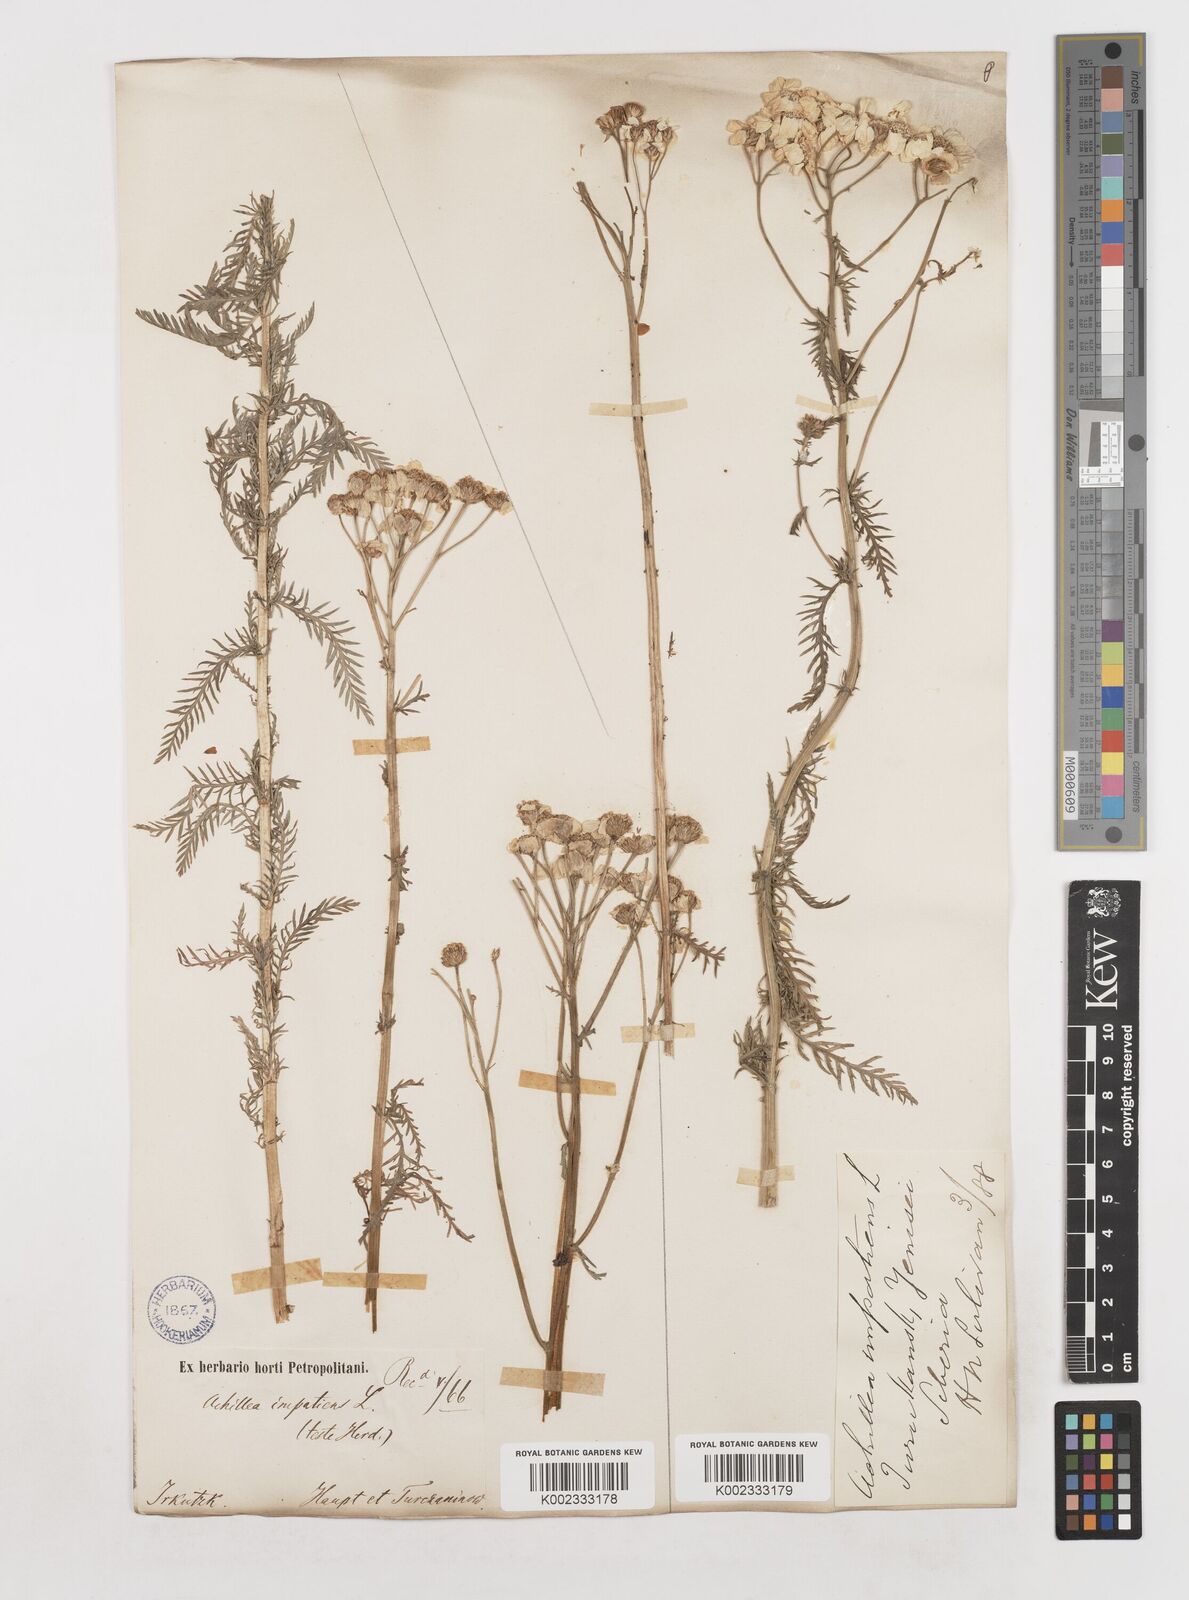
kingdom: Plantae
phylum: Tracheophyta
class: Magnoliopsida
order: Asterales
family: Asteraceae
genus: Achillea
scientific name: Achillea impatiens
